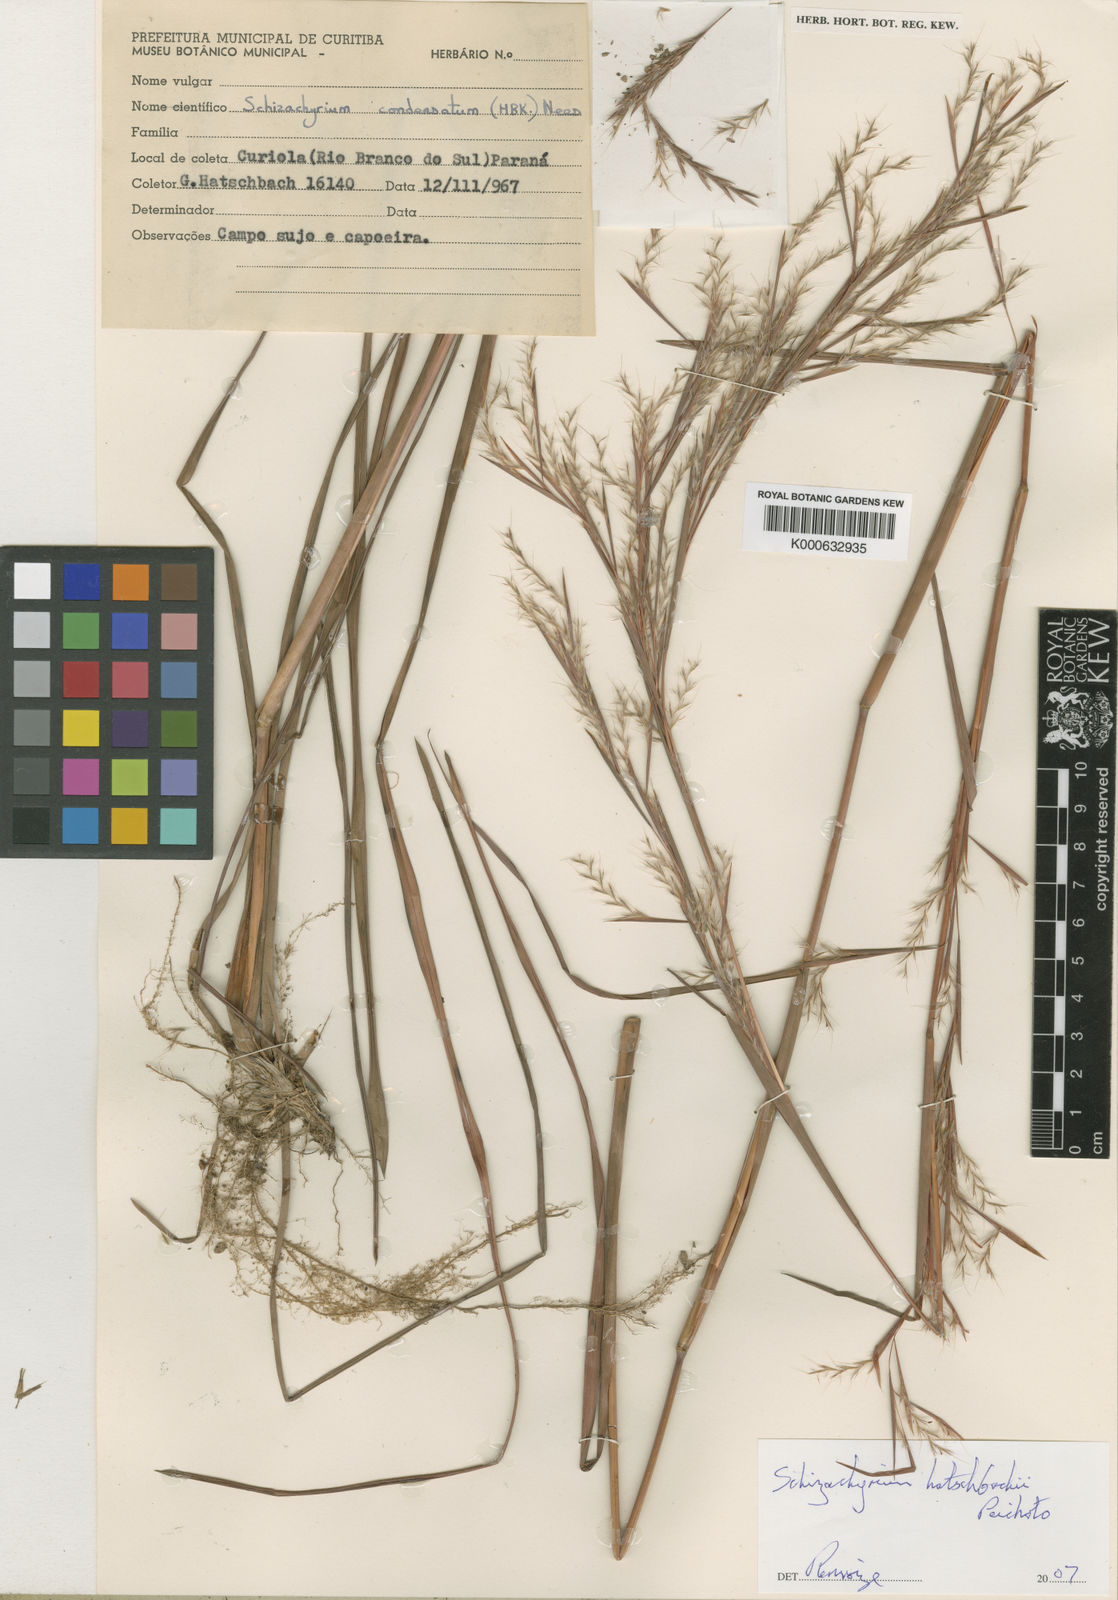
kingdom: Plantae
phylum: Tracheophyta
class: Liliopsida
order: Poales
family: Poaceae
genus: Schizachyrium
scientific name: Schizachyrium hatschbachii
